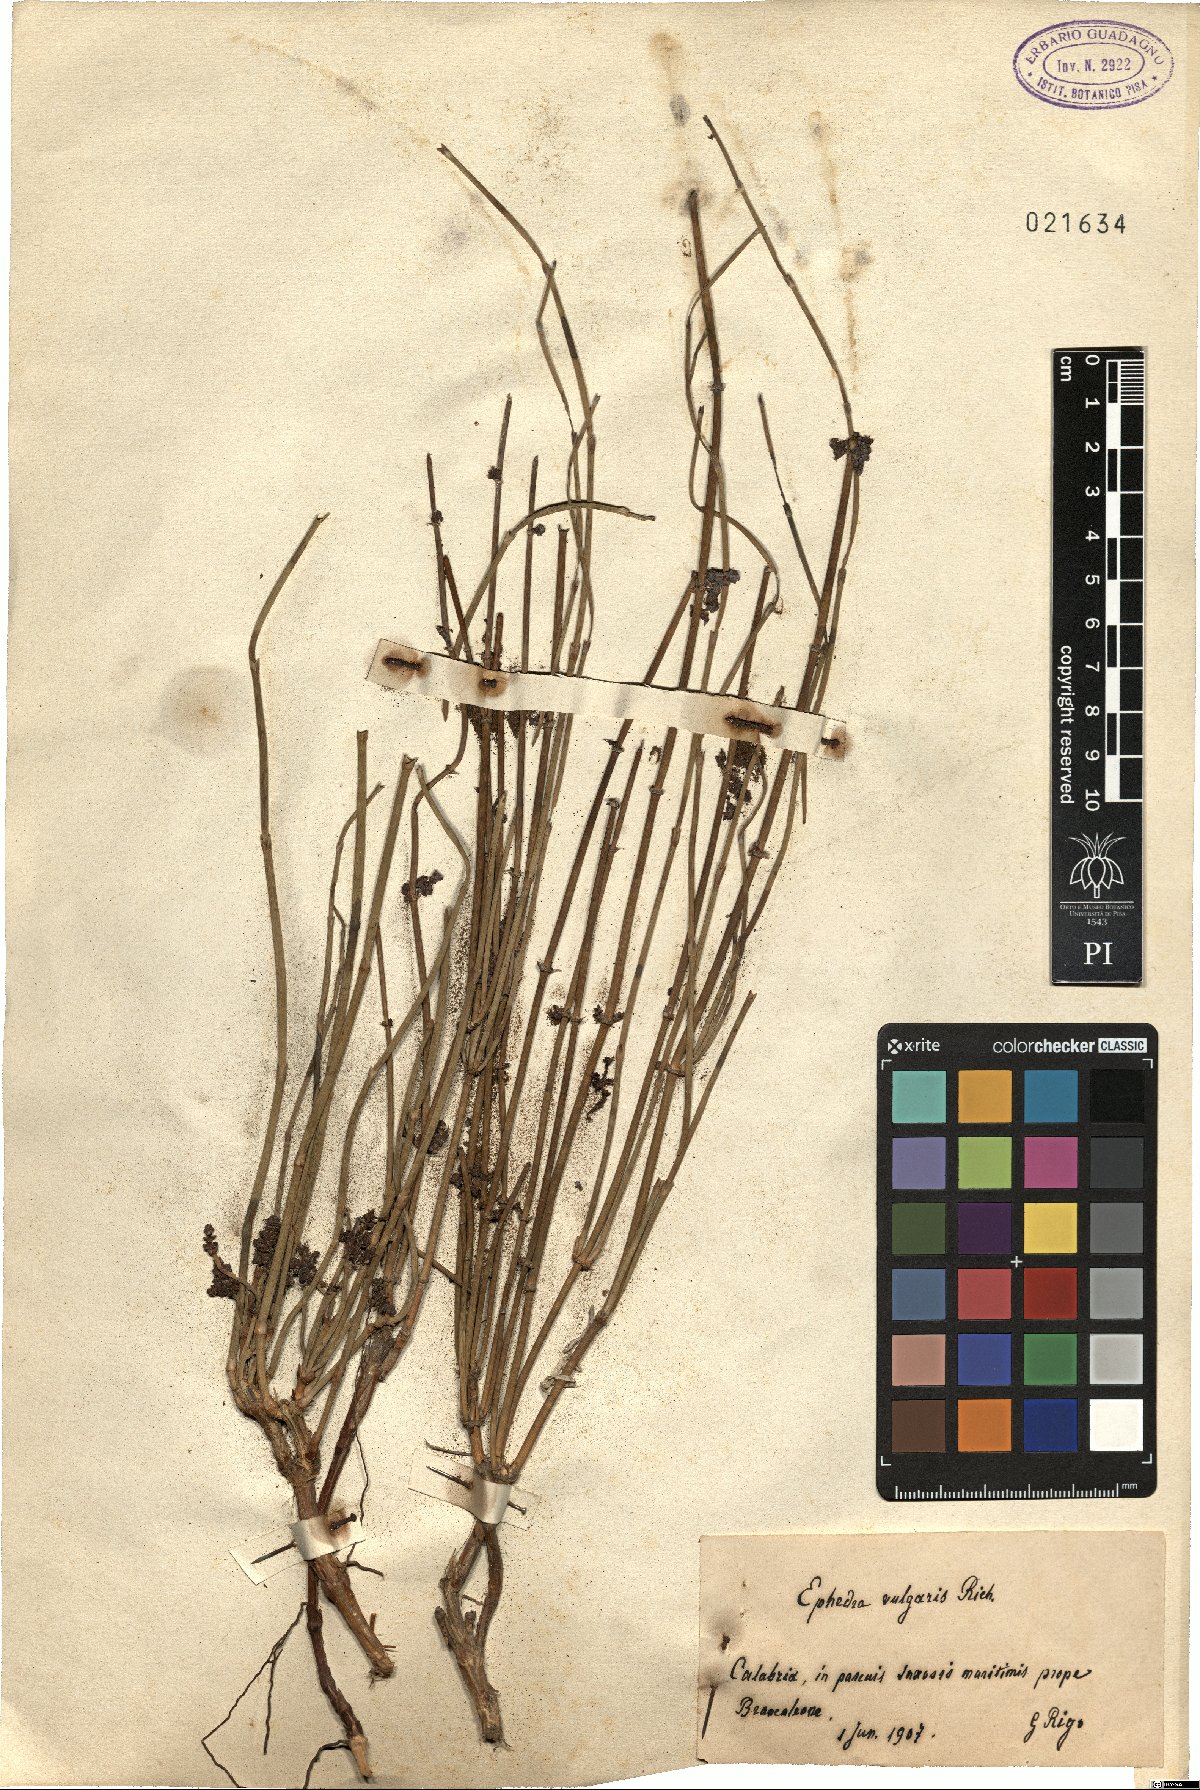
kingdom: Plantae
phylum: Tracheophyta
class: Gnetopsida
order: Ephedrales
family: Ephedraceae
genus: Ephedra
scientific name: Ephedra distachya
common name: Sea grape
